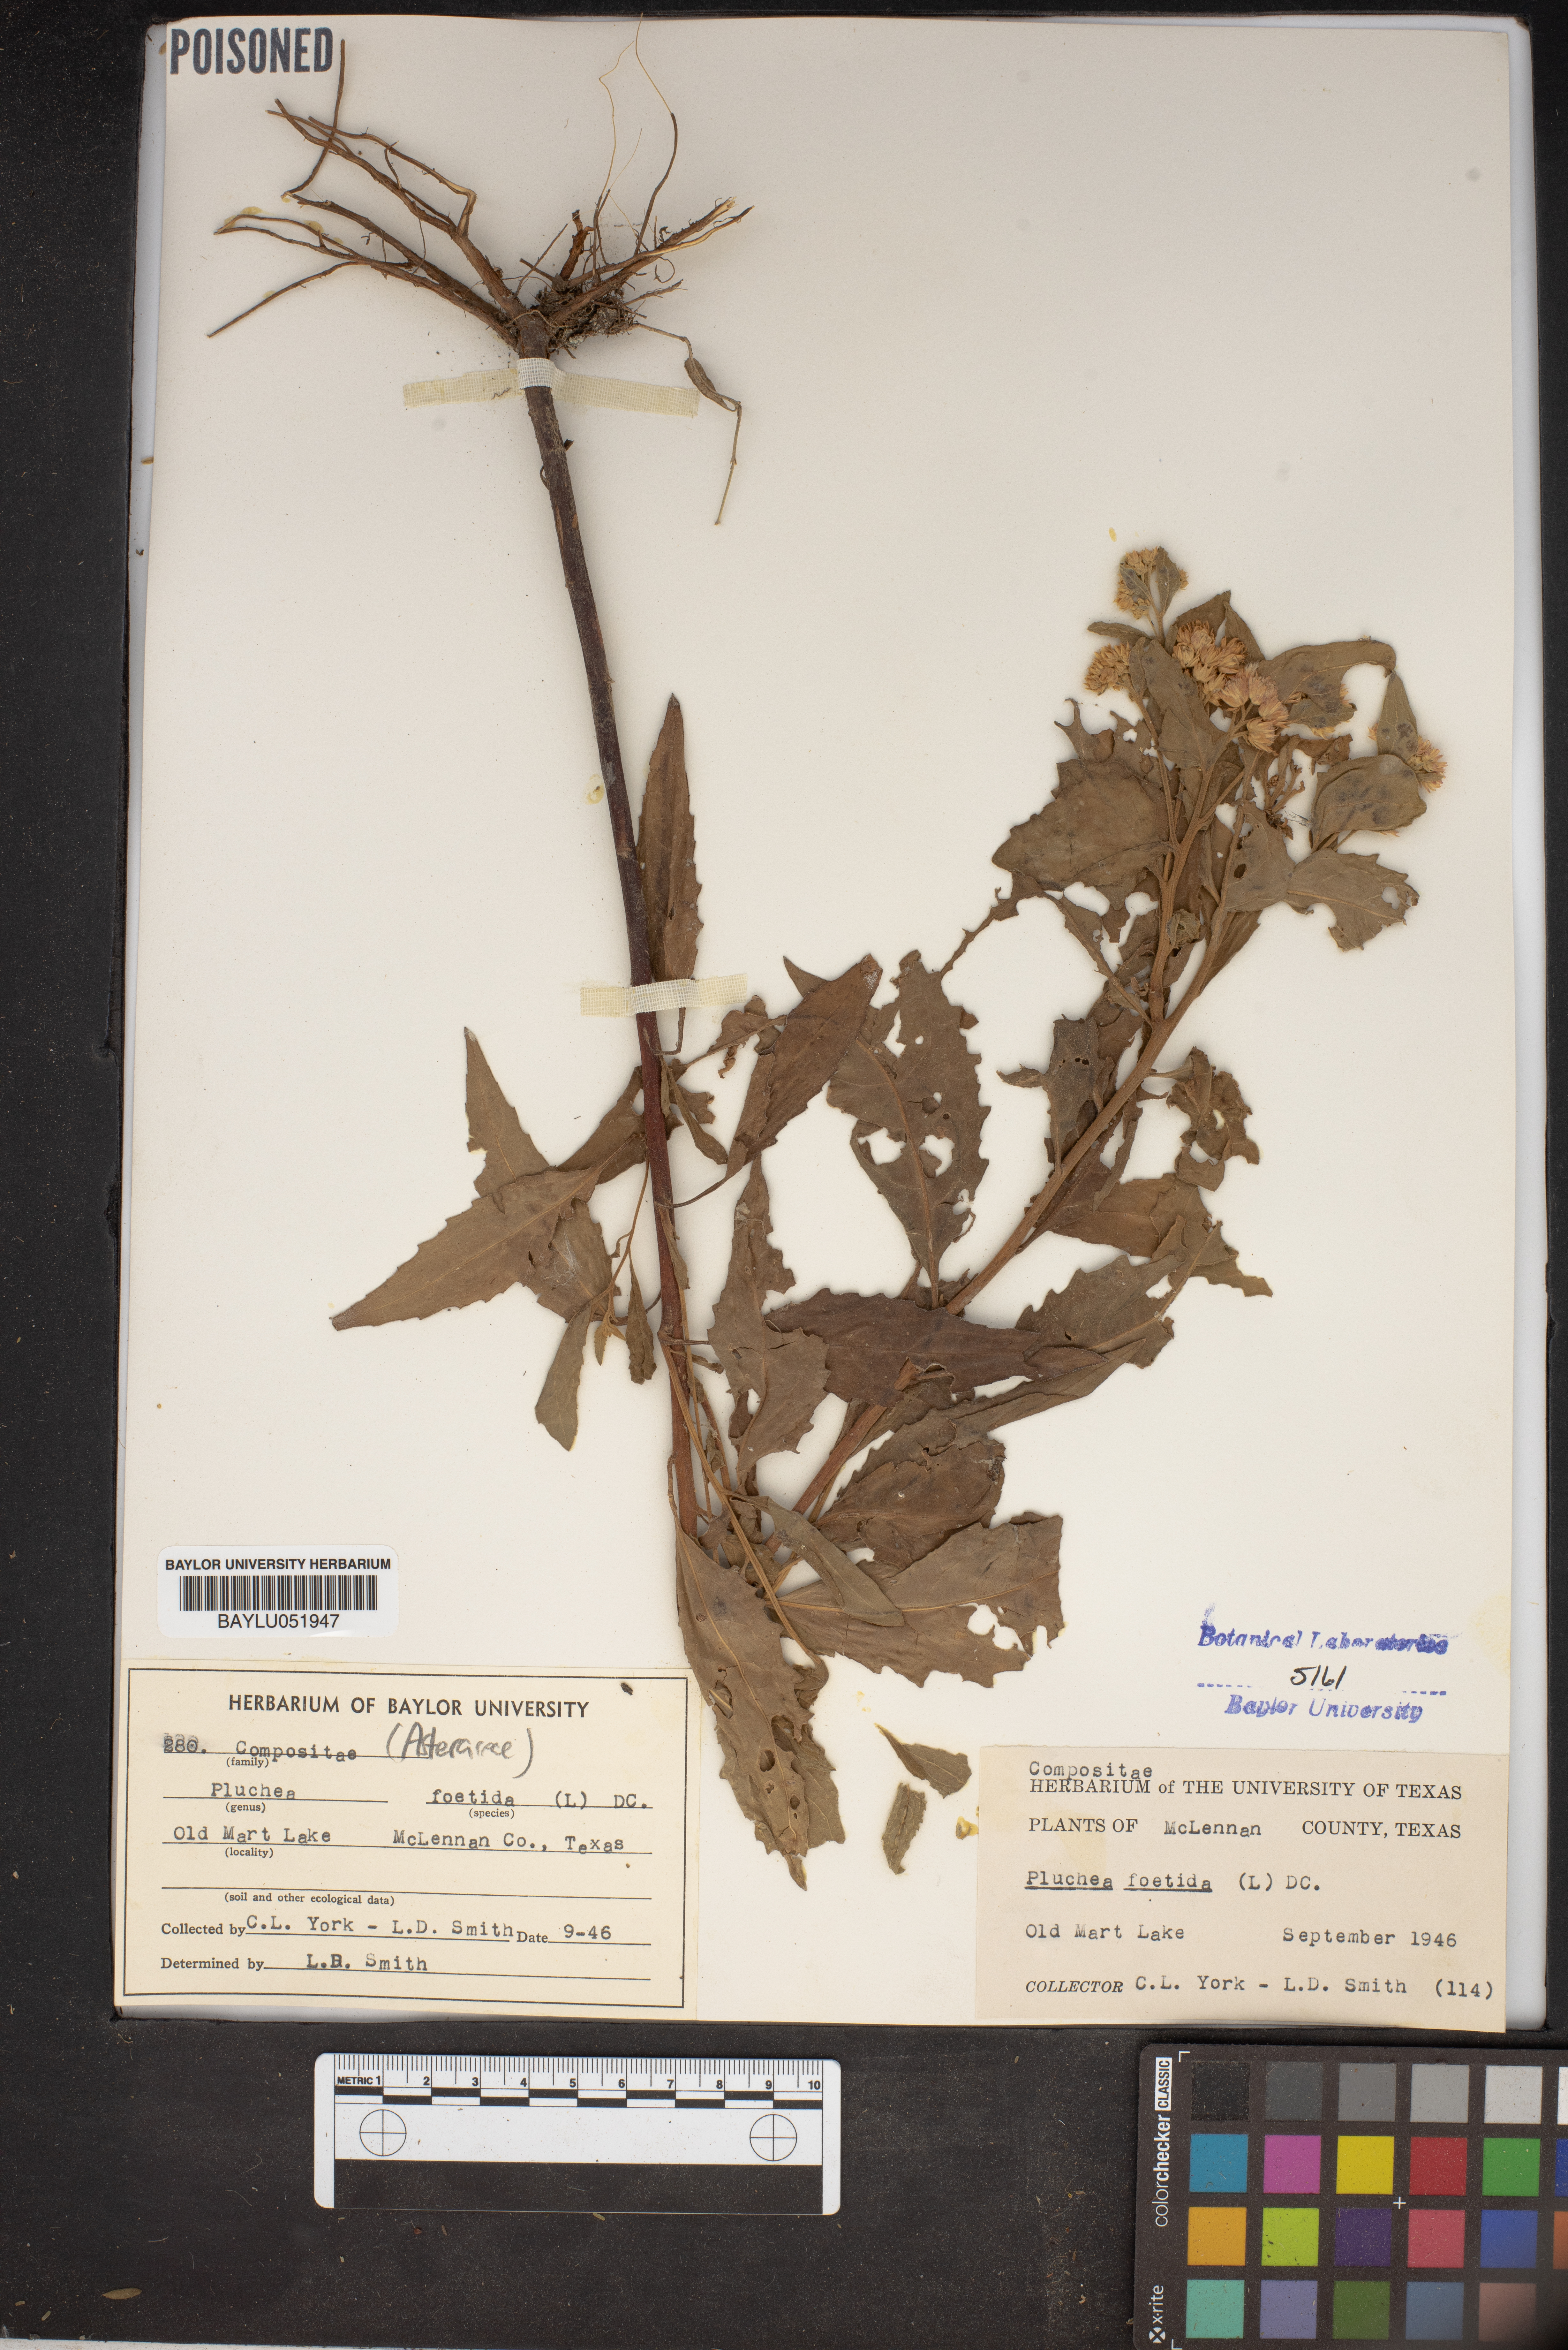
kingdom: Plantae
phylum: Tracheophyta
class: Magnoliopsida
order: Asterales
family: Asteraceae
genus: Pluchea
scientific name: Pluchea foetida
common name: Stinking camphorweed
